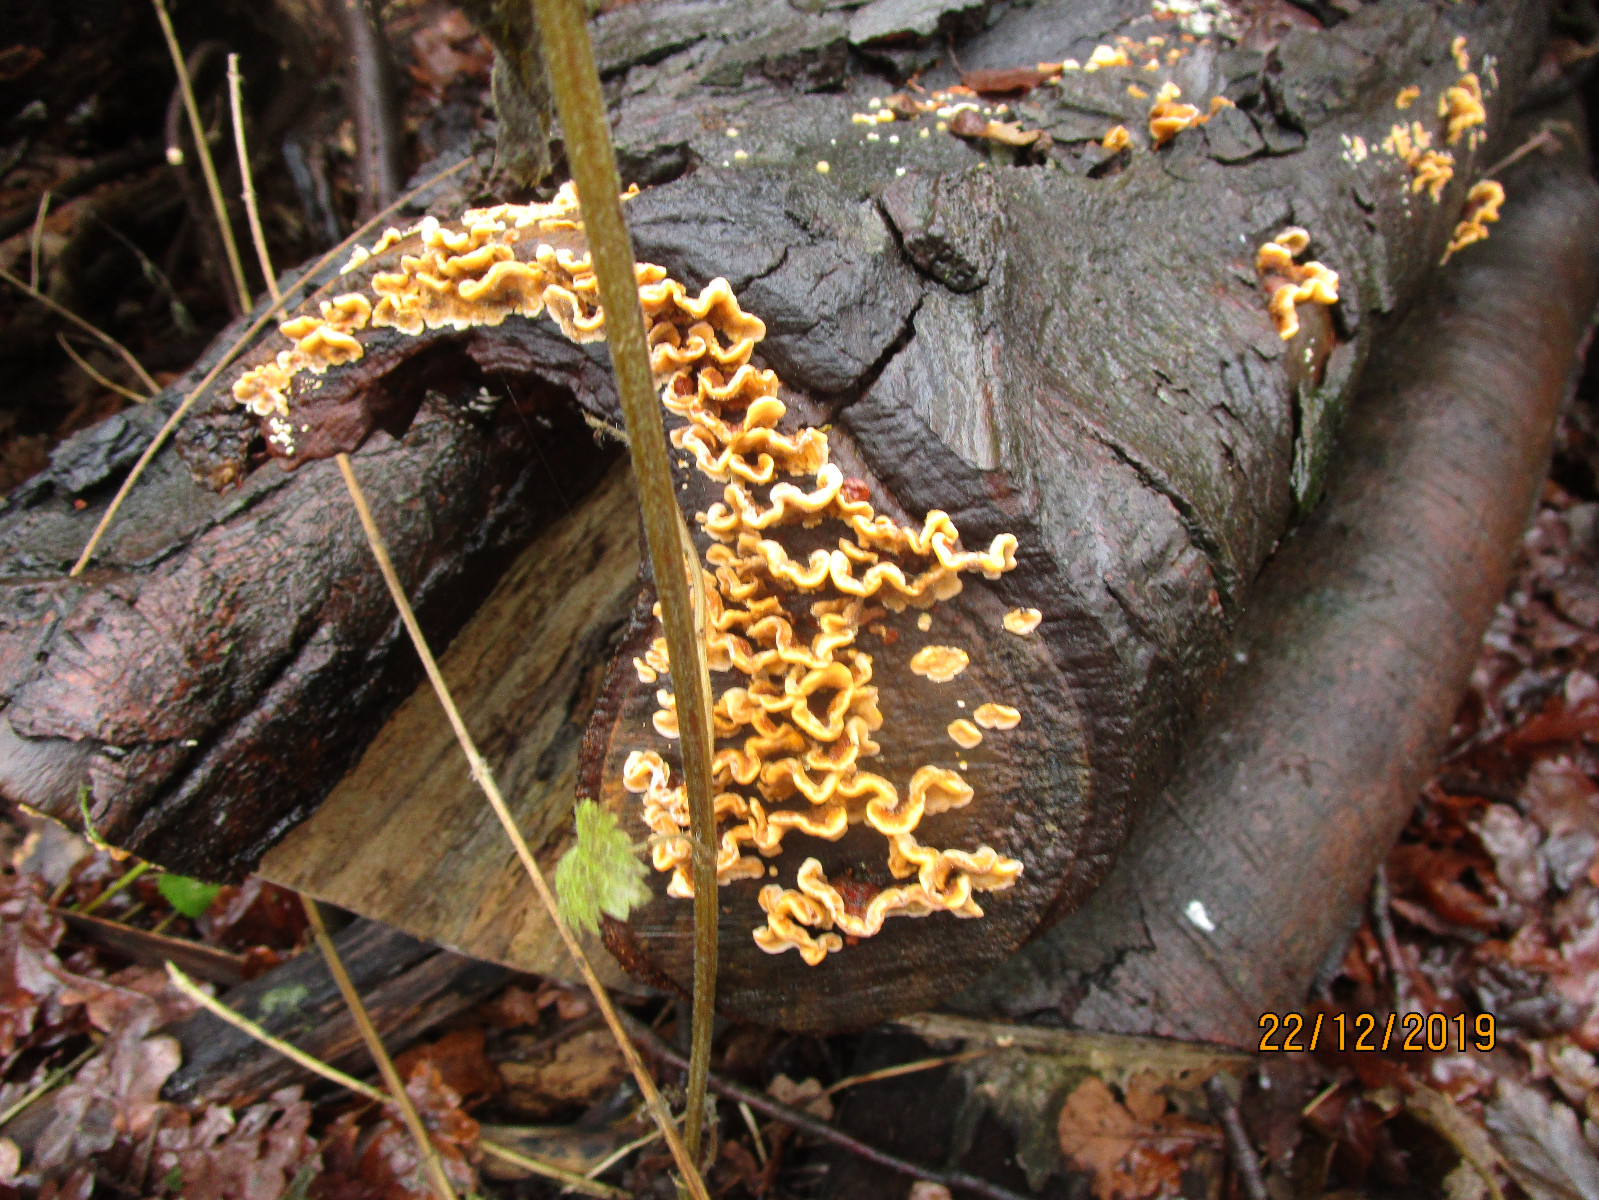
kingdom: Fungi
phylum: Basidiomycota
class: Agaricomycetes
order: Russulales
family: Stereaceae
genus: Stereum
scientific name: Stereum hirsutum
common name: håret lædersvamp
